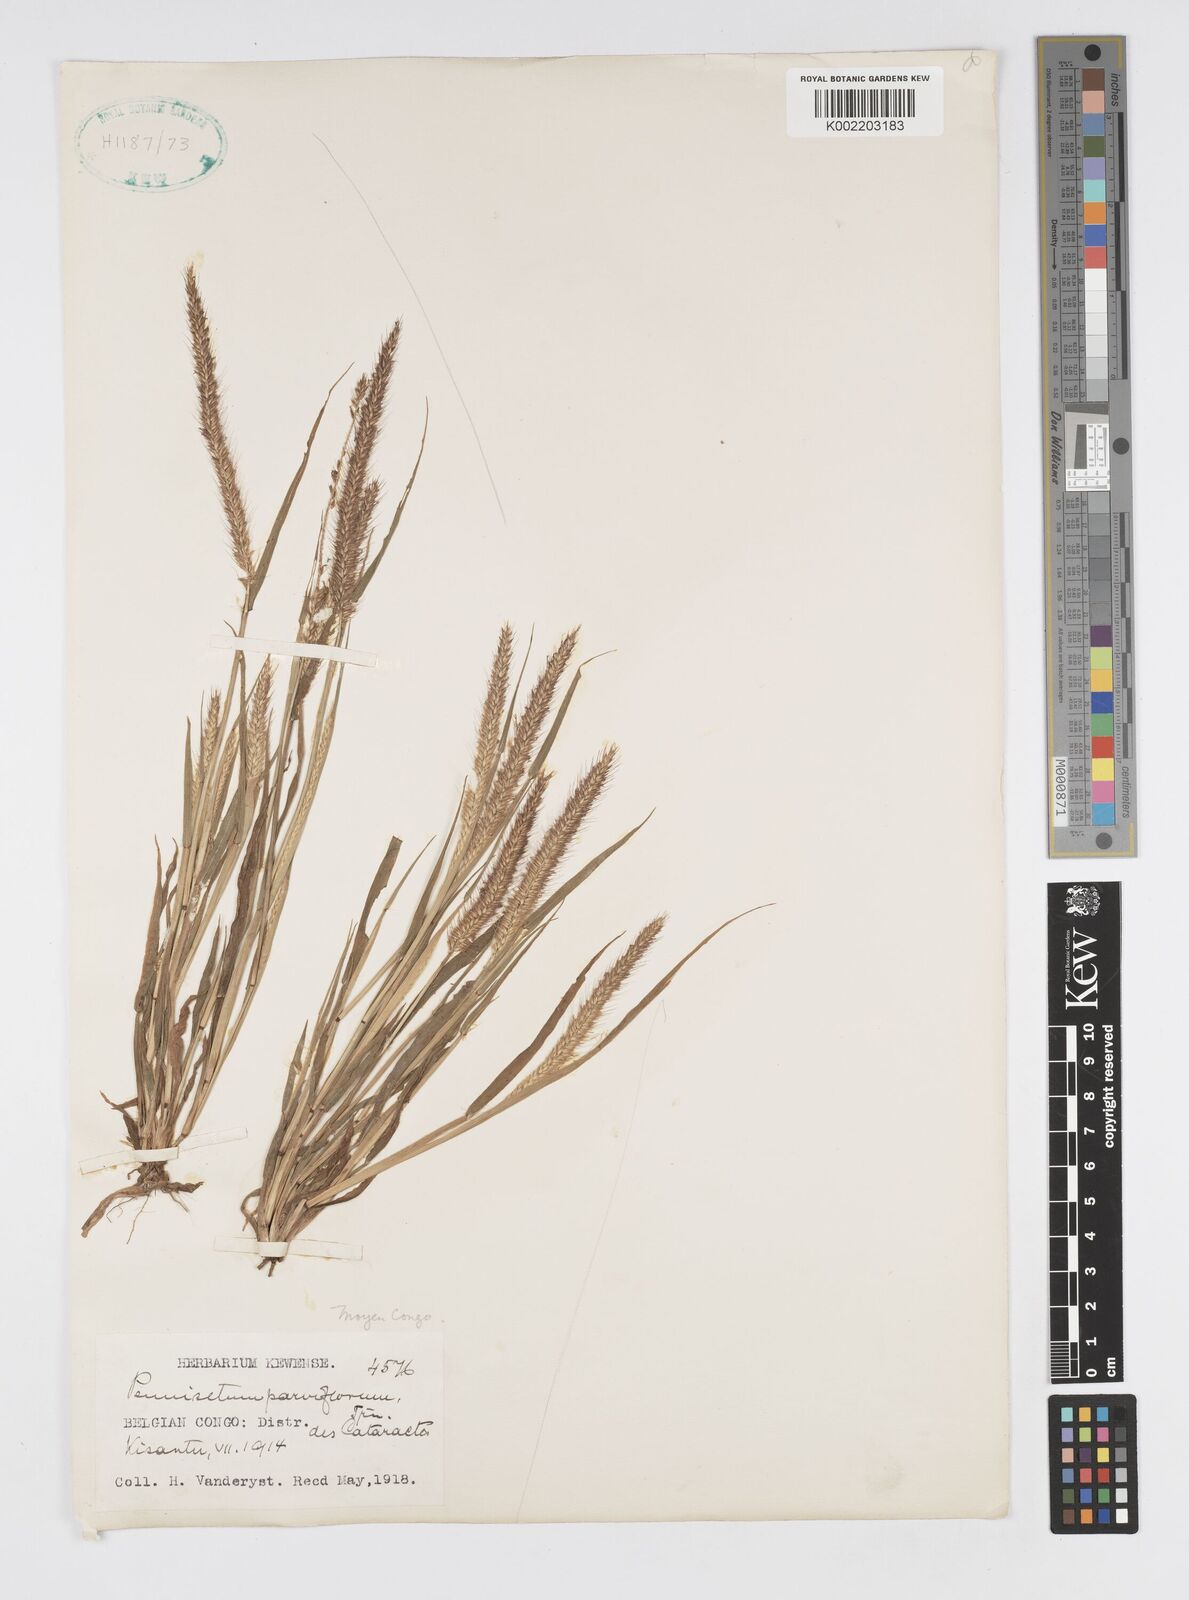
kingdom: Plantae
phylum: Tracheophyta
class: Liliopsida
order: Poales
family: Poaceae
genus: Cenchrus
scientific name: Cenchrus hordeoides
